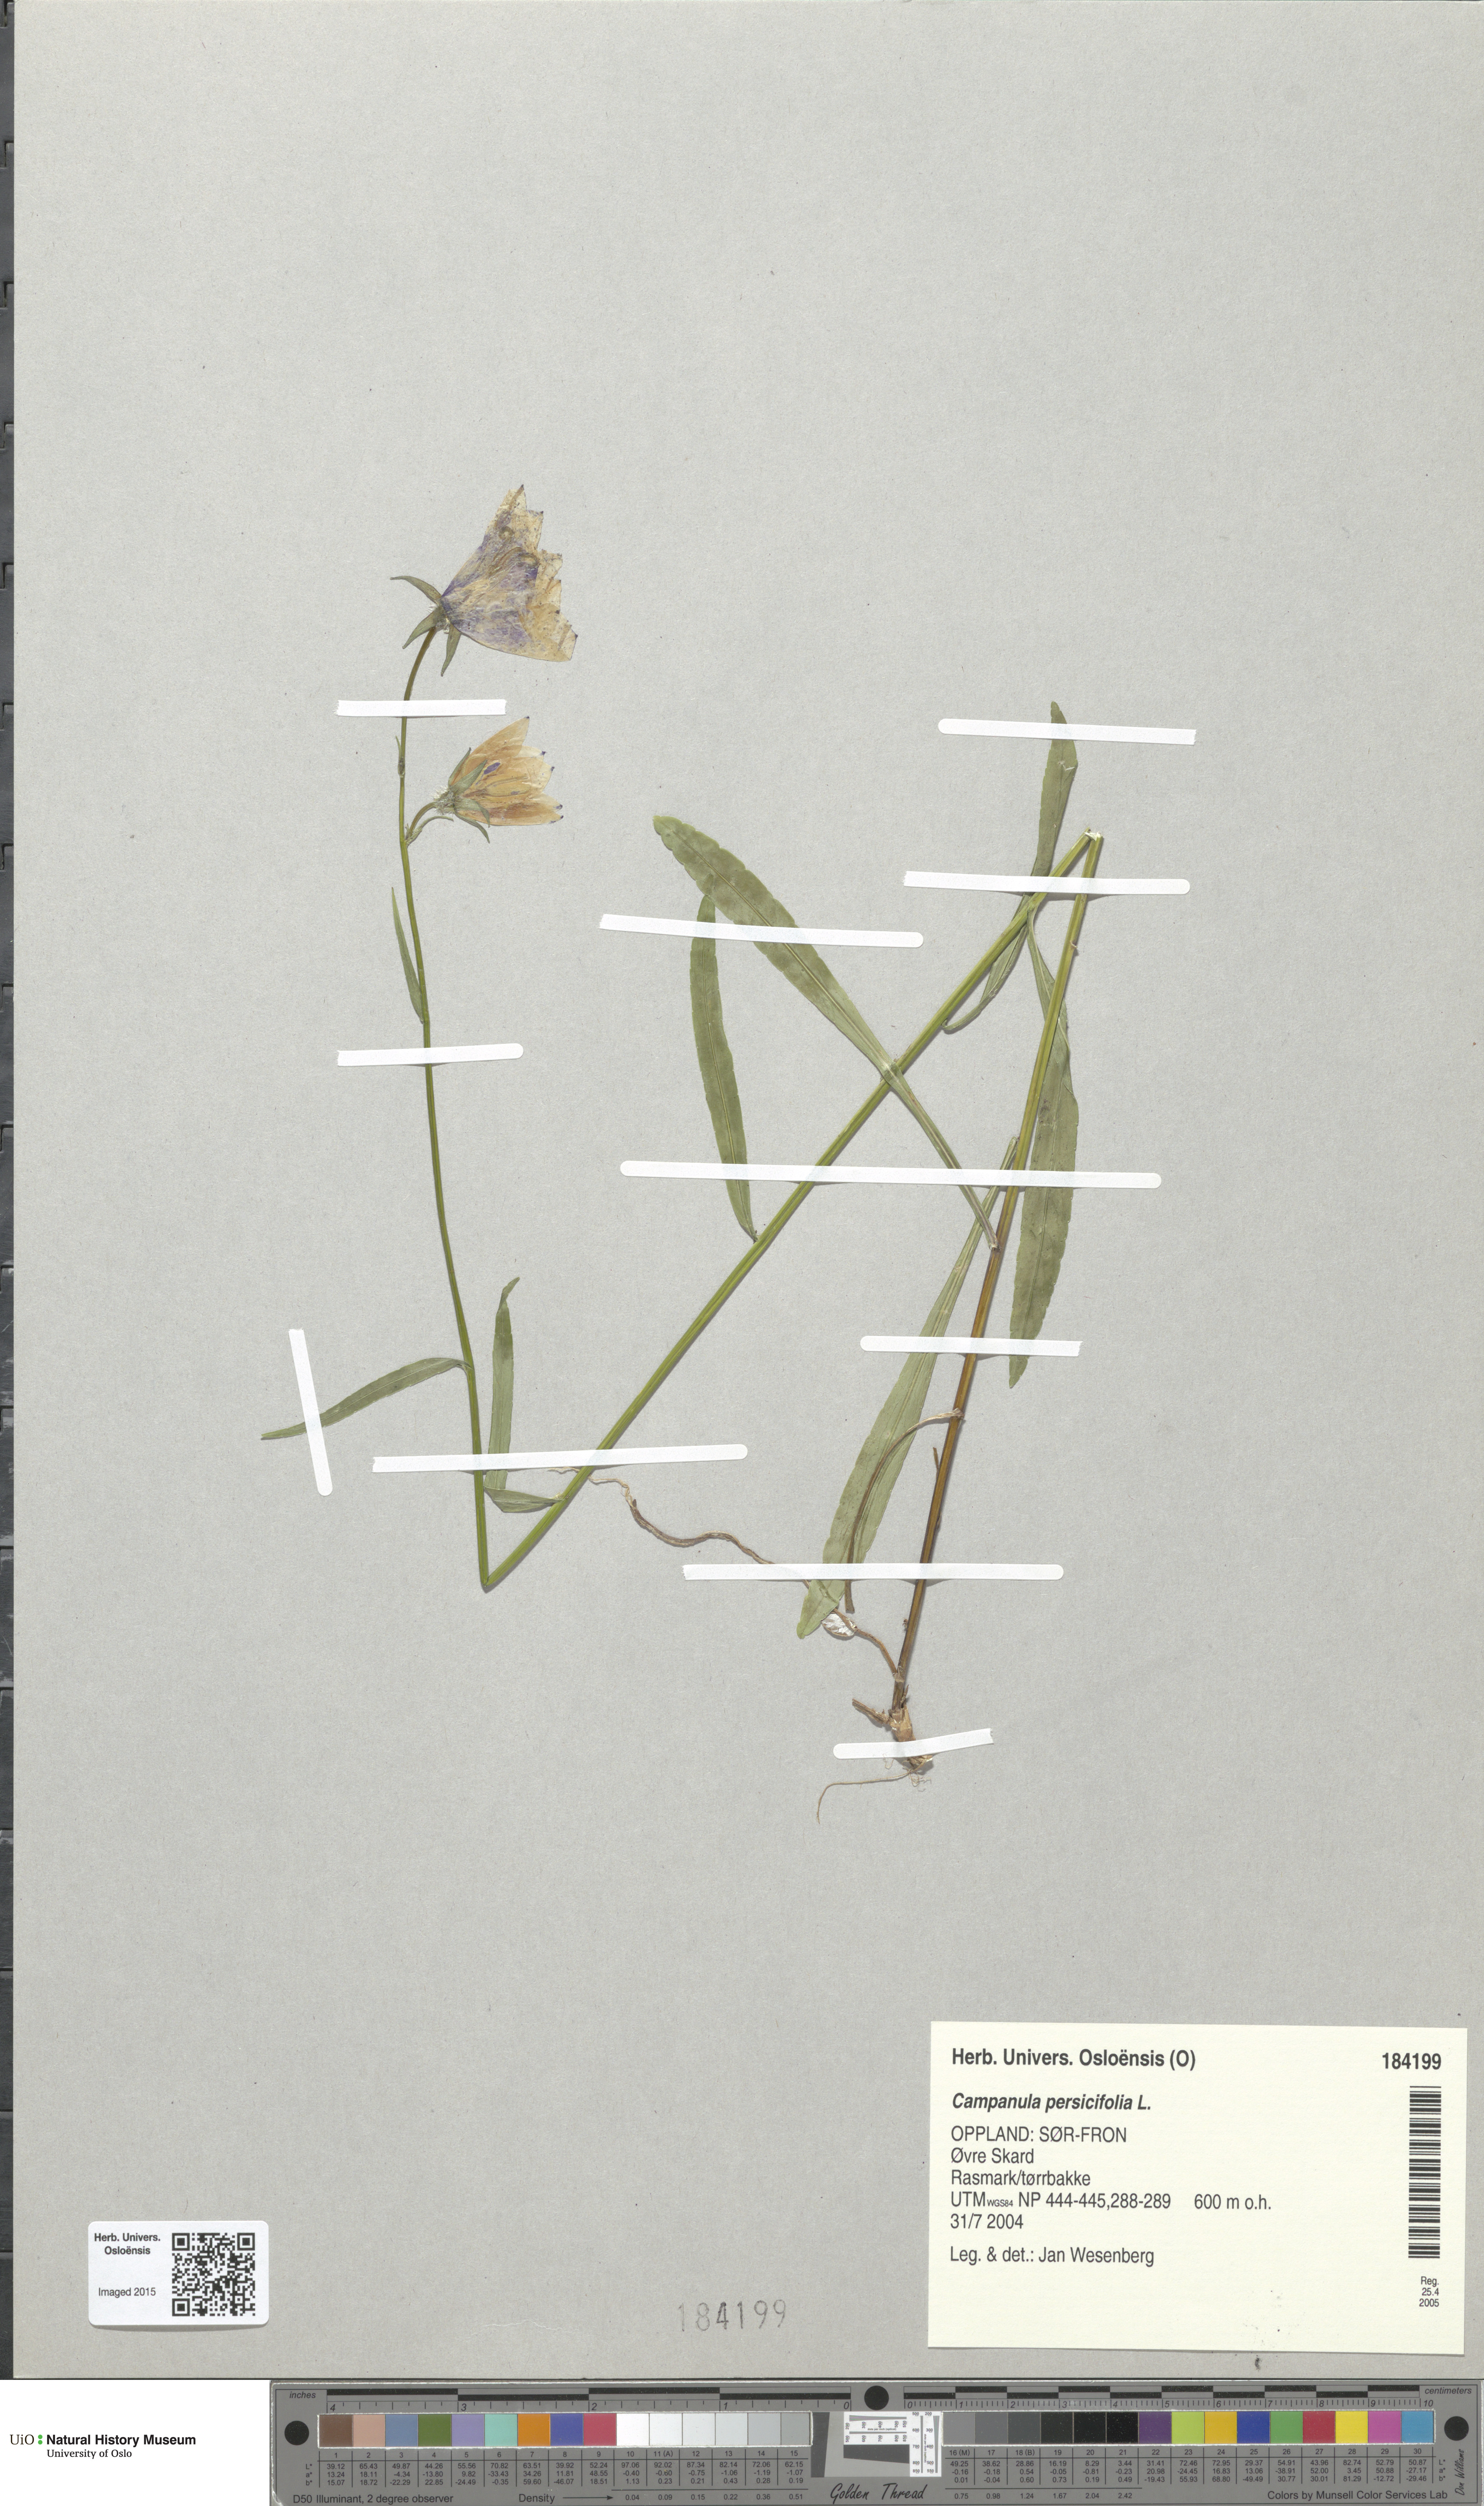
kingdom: Plantae
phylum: Tracheophyta
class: Magnoliopsida
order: Asterales
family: Campanulaceae
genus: Campanula
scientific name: Campanula persicifolia
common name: Peach-leaved bellflower
